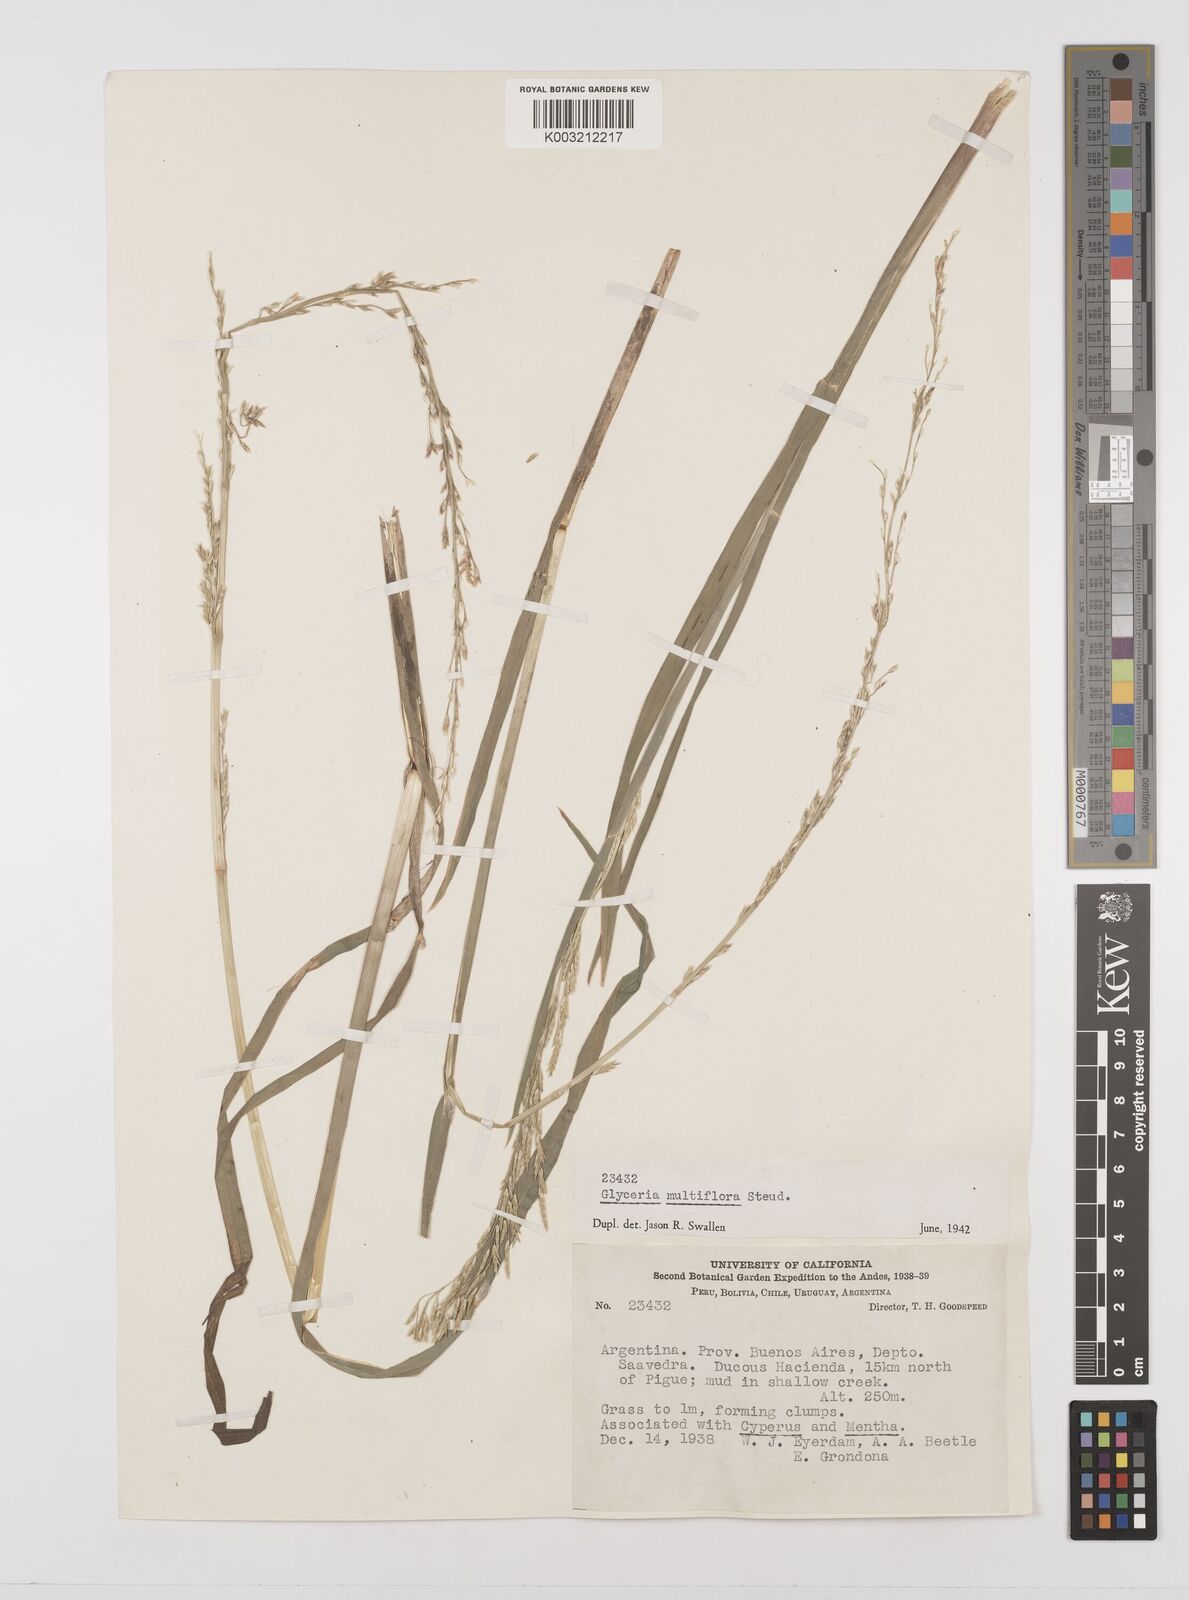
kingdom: Plantae
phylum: Tracheophyta
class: Liliopsida
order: Poales
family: Poaceae
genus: Glyceria
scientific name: Glyceria multiflora
